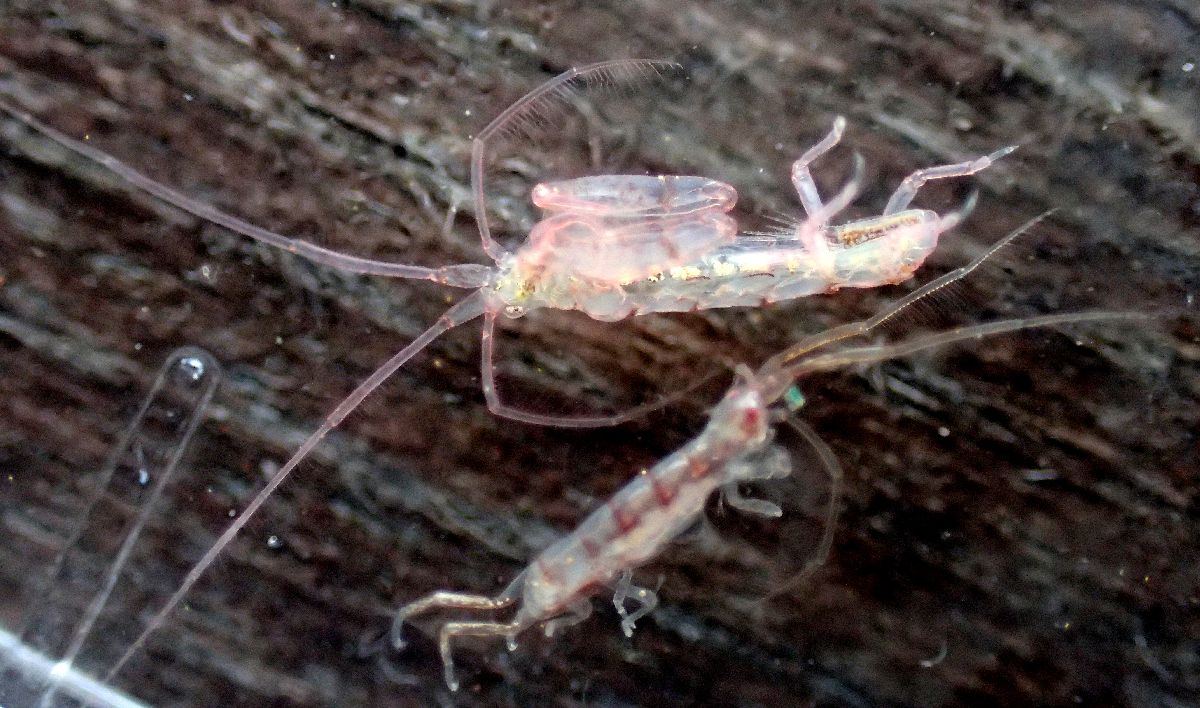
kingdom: Animalia
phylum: Arthropoda
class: Malacostraca
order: Amphipoda
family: Dulichiidae
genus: Dyopedos
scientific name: Dyopedos bispinis
